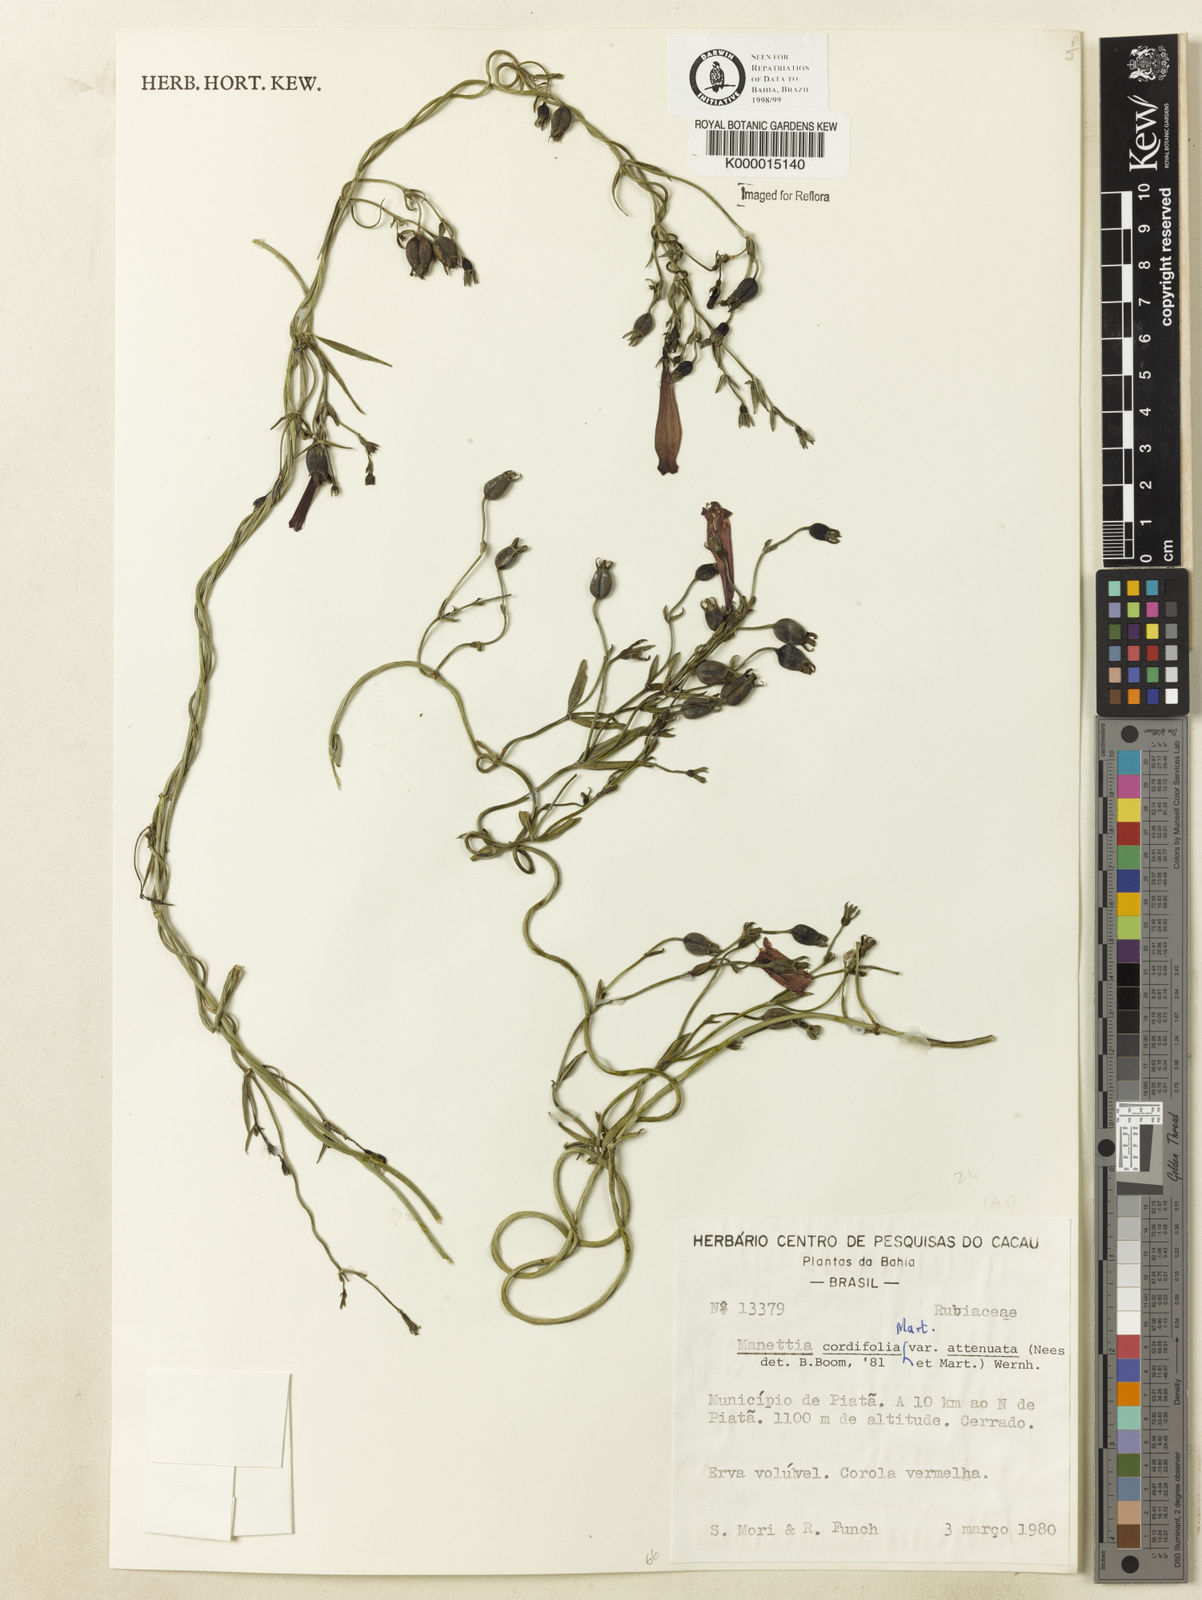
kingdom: Plantae
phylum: Tracheophyta
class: Magnoliopsida
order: Gentianales
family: Rubiaceae
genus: Manettia
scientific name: Manettia cordifolia
